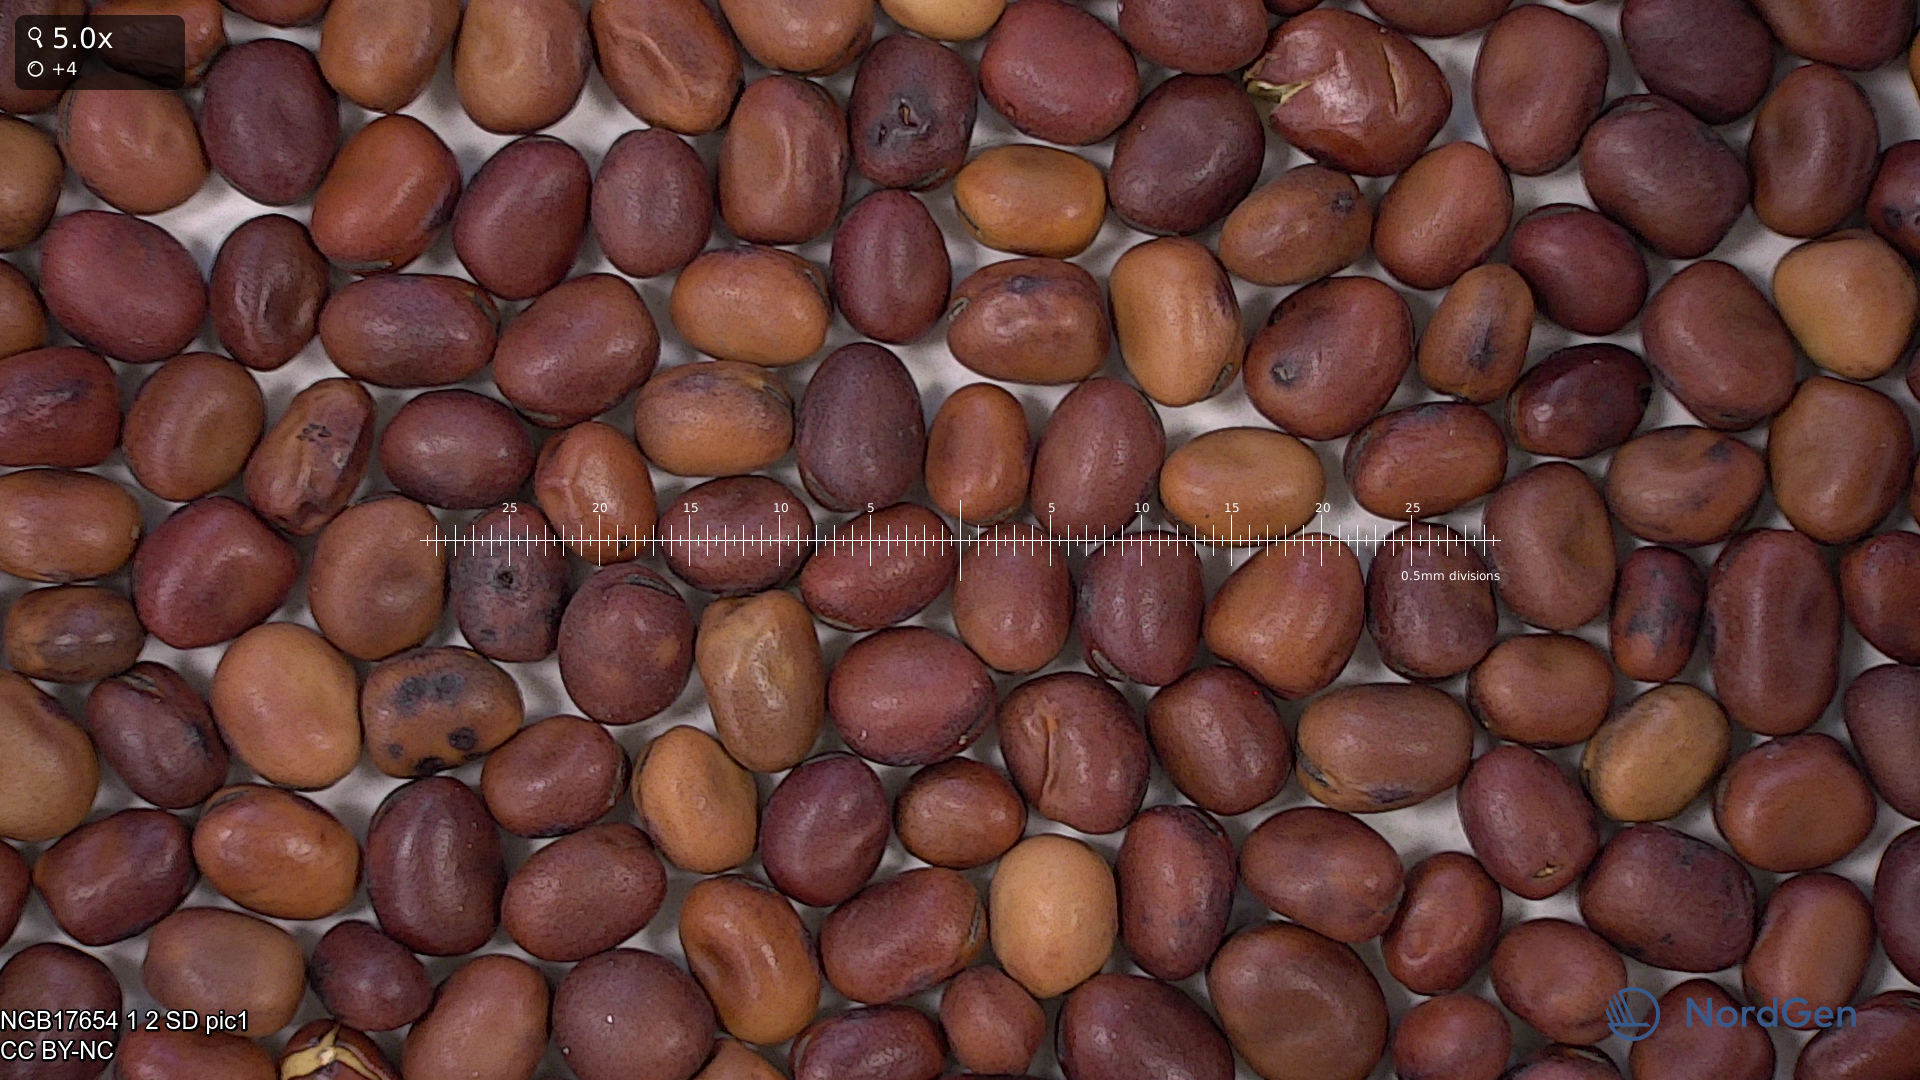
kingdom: Plantae
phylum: Tracheophyta
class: Magnoliopsida
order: Fabales
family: Fabaceae
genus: Vicia
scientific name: Vicia faba
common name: Broad bean
